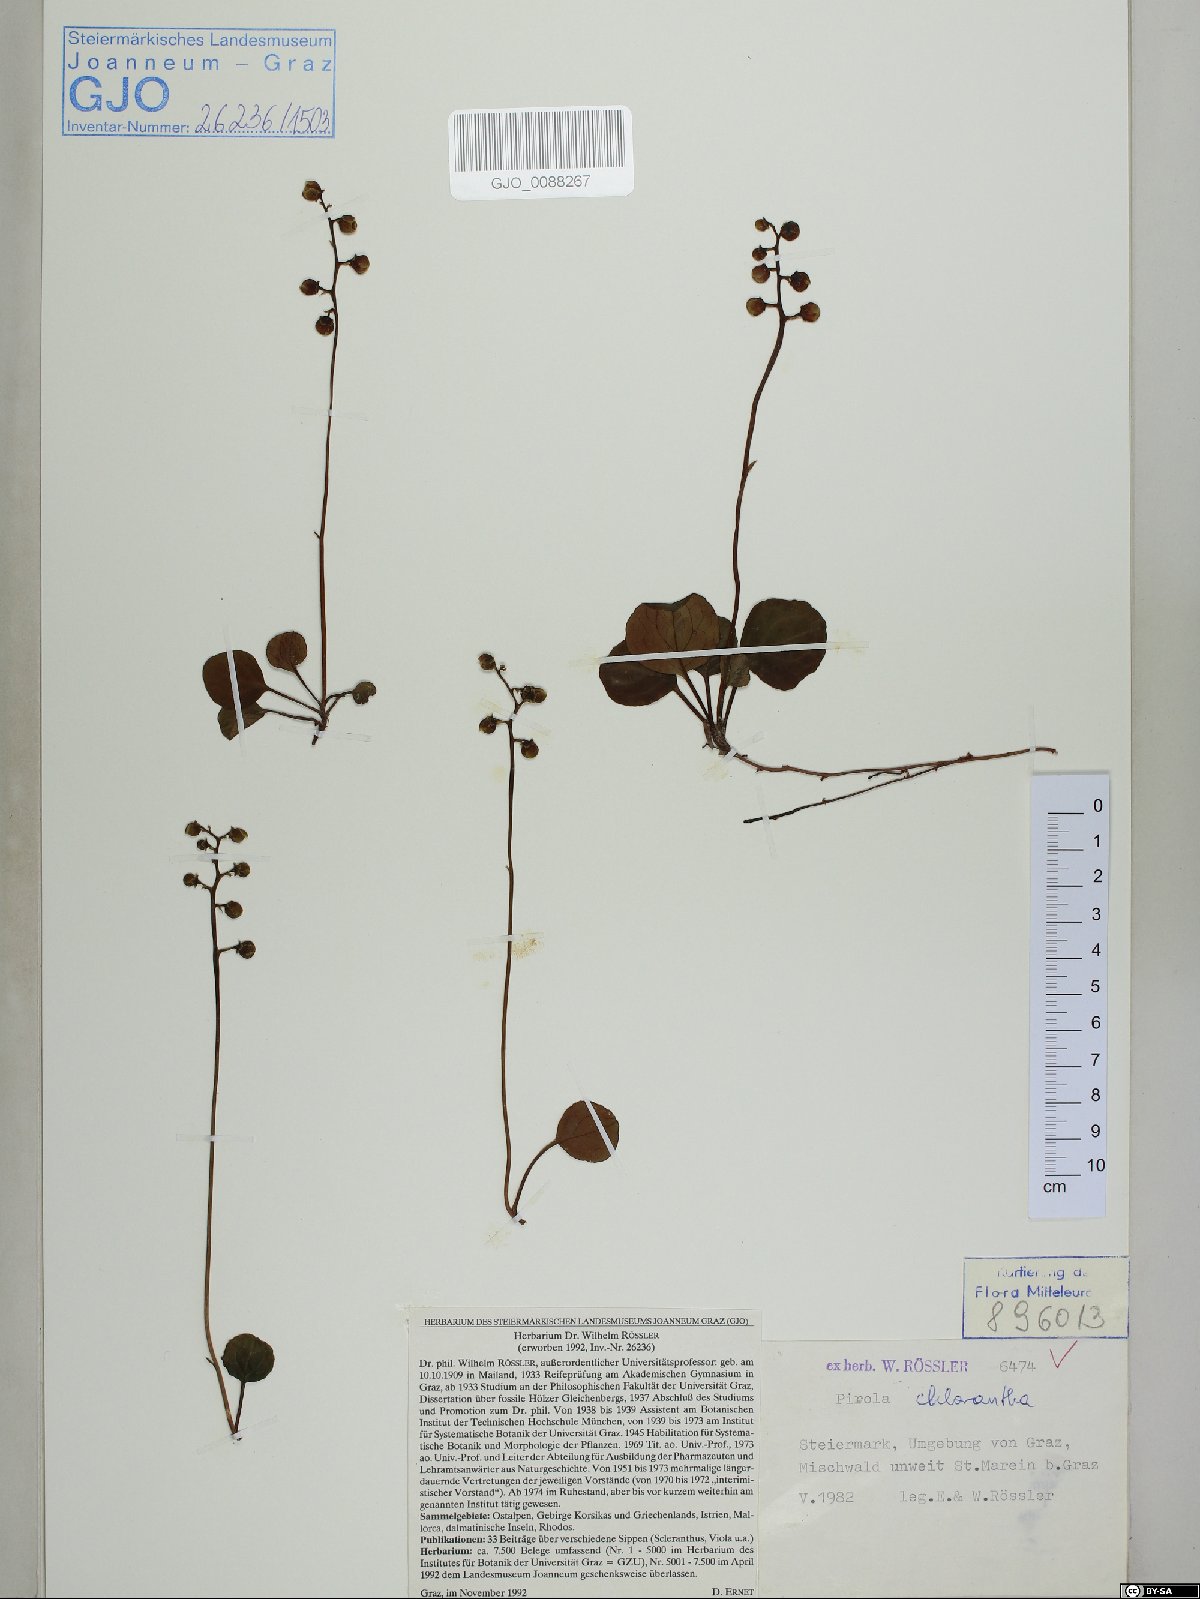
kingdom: Plantae
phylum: Tracheophyta
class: Magnoliopsida
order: Ericales
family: Ericaceae
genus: Pyrola
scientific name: Pyrola chlorantha
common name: Green wintergreen
